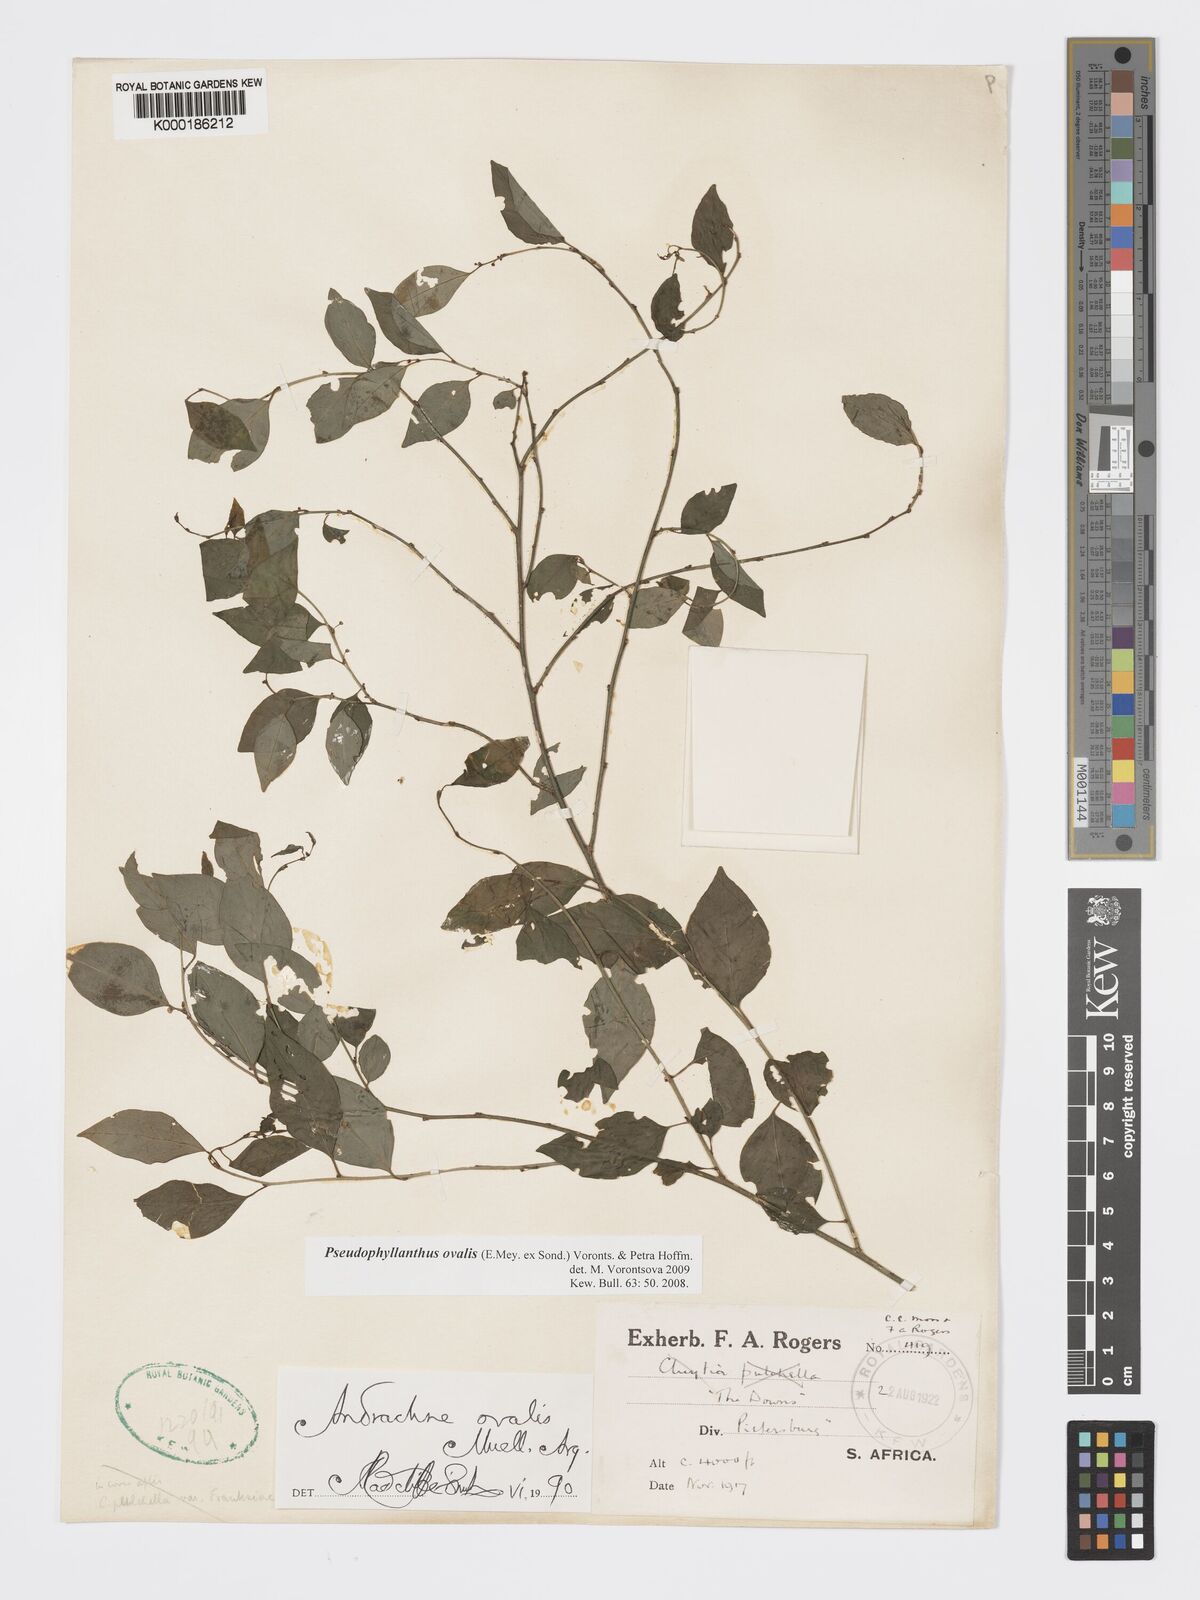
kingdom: Plantae
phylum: Tracheophyta
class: Magnoliopsida
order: Malpighiales
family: Phyllanthaceae
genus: Pseudophyllanthus
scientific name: Pseudophyllanthus ovalis
